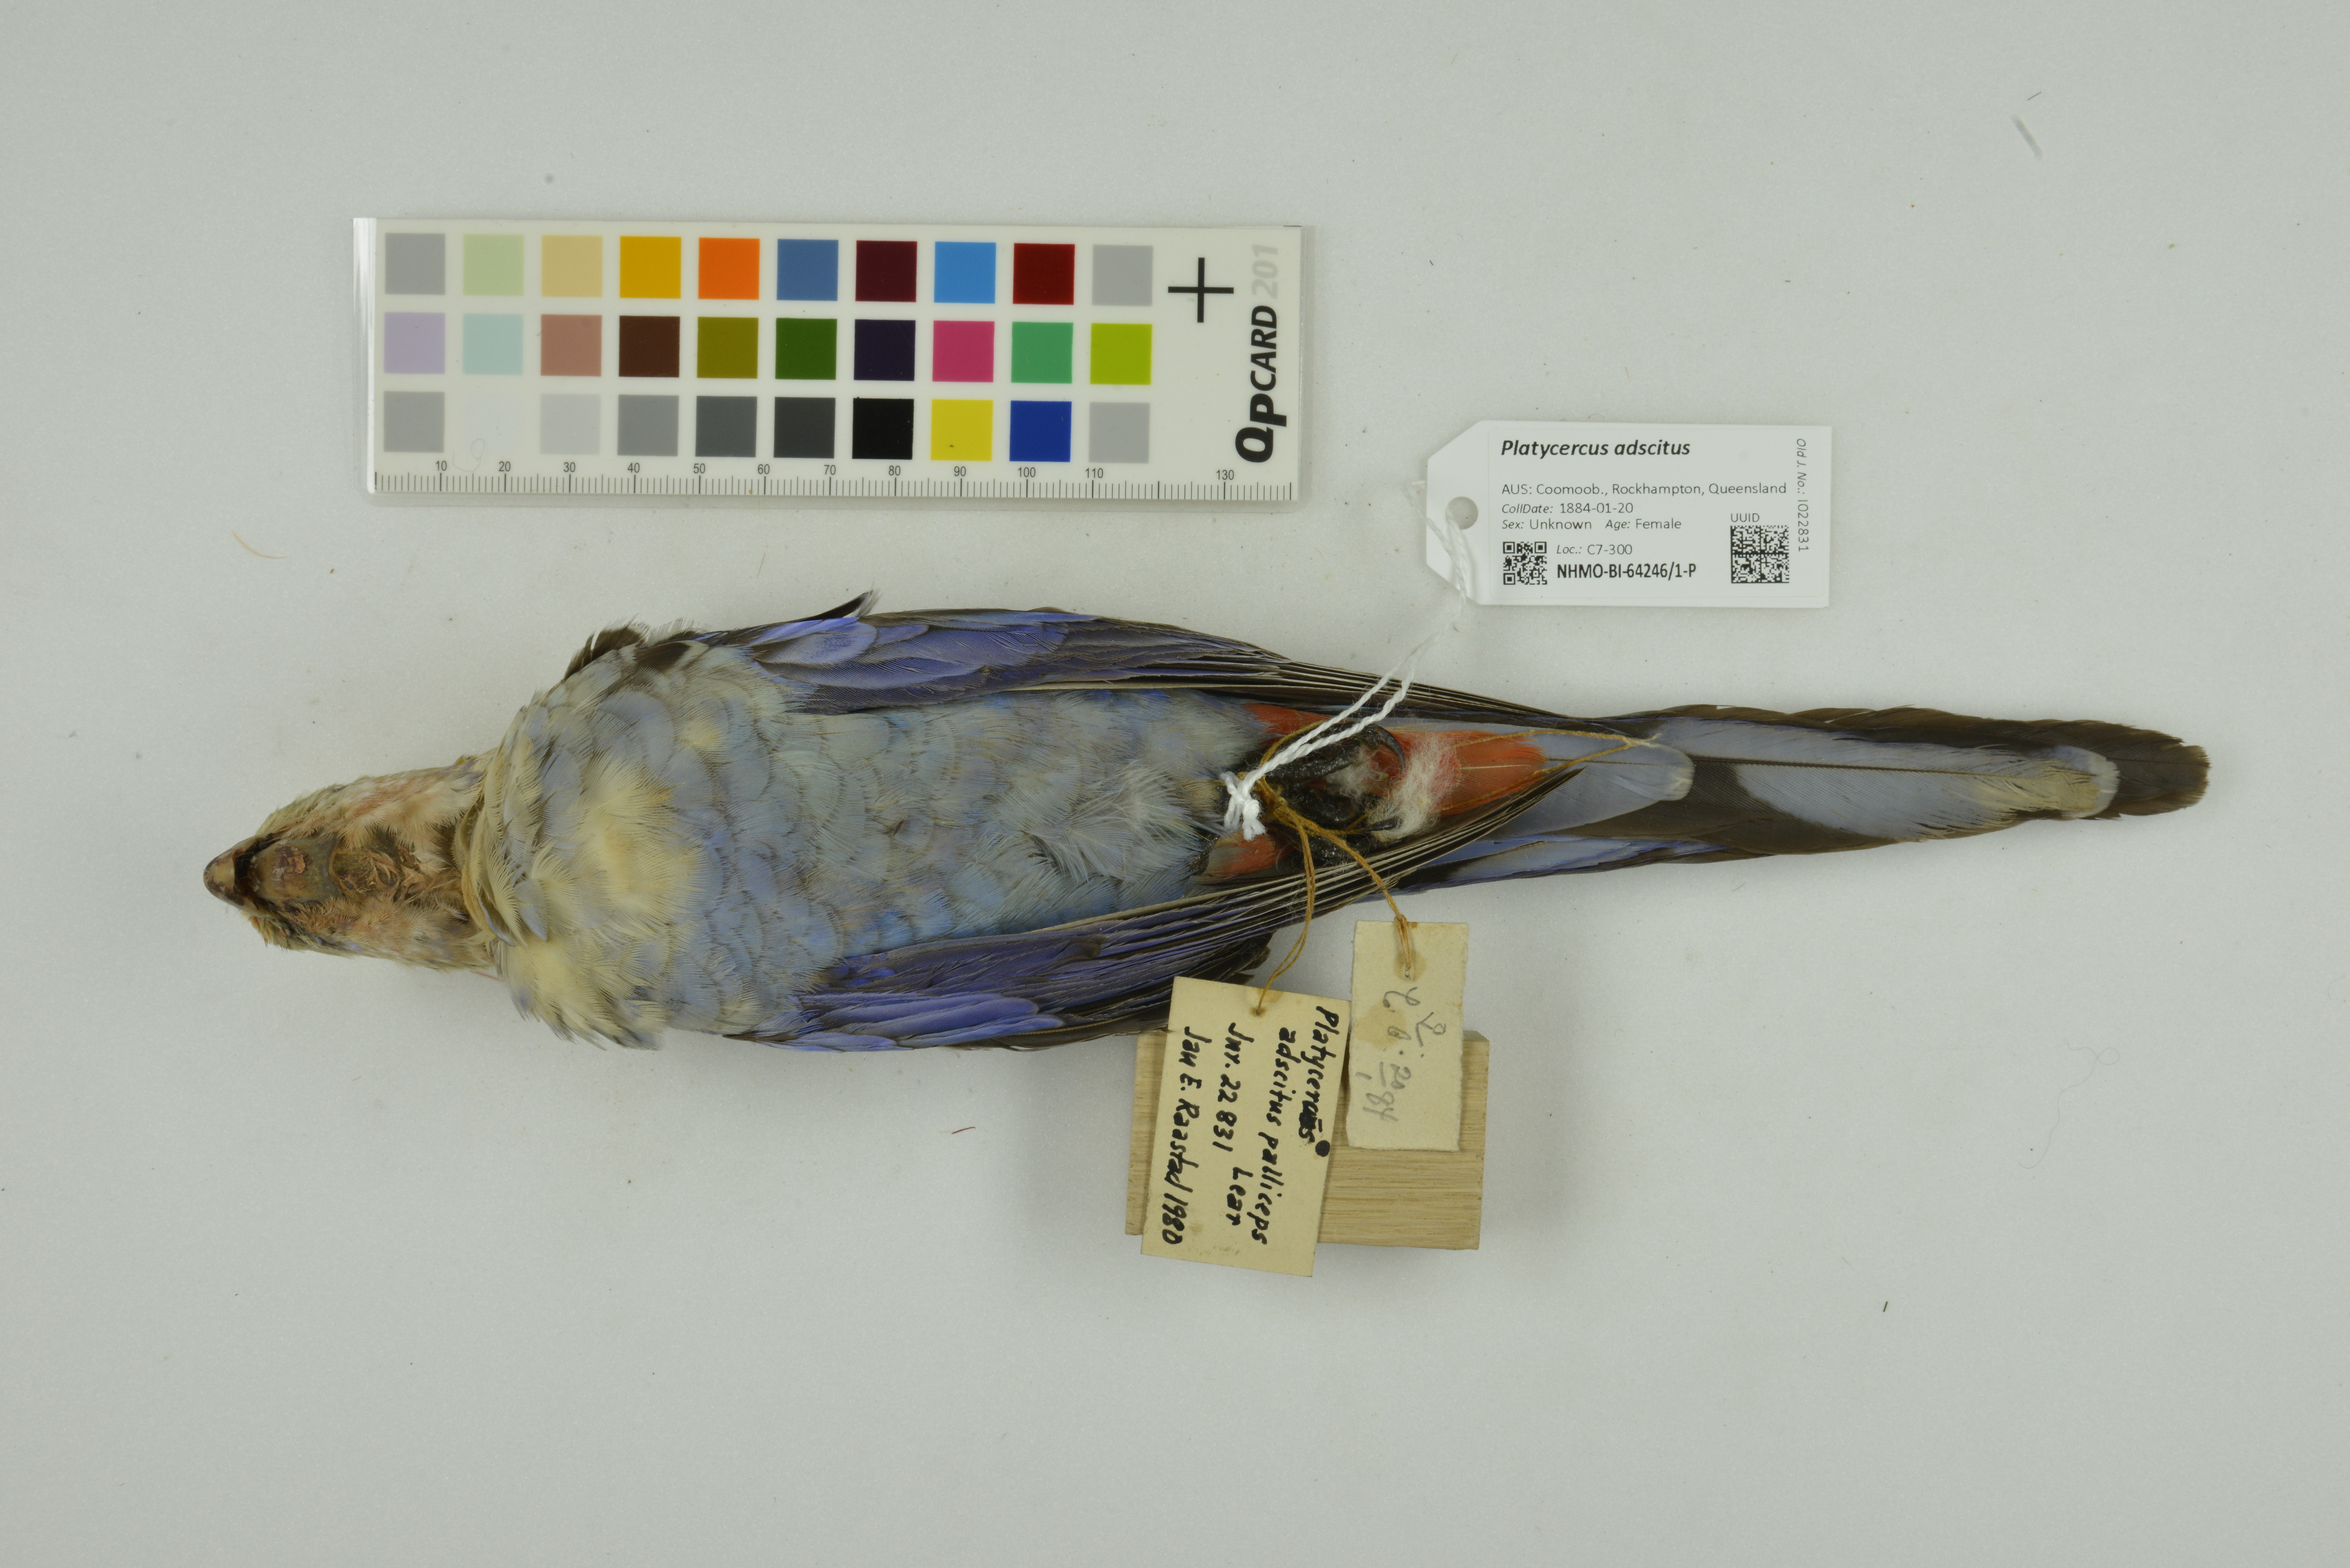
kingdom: Animalia
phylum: Chordata
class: Aves
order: Psittaciformes
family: Psittacidae
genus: Platycercus
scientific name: Platycercus adscitus
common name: Pale-headed rosella
